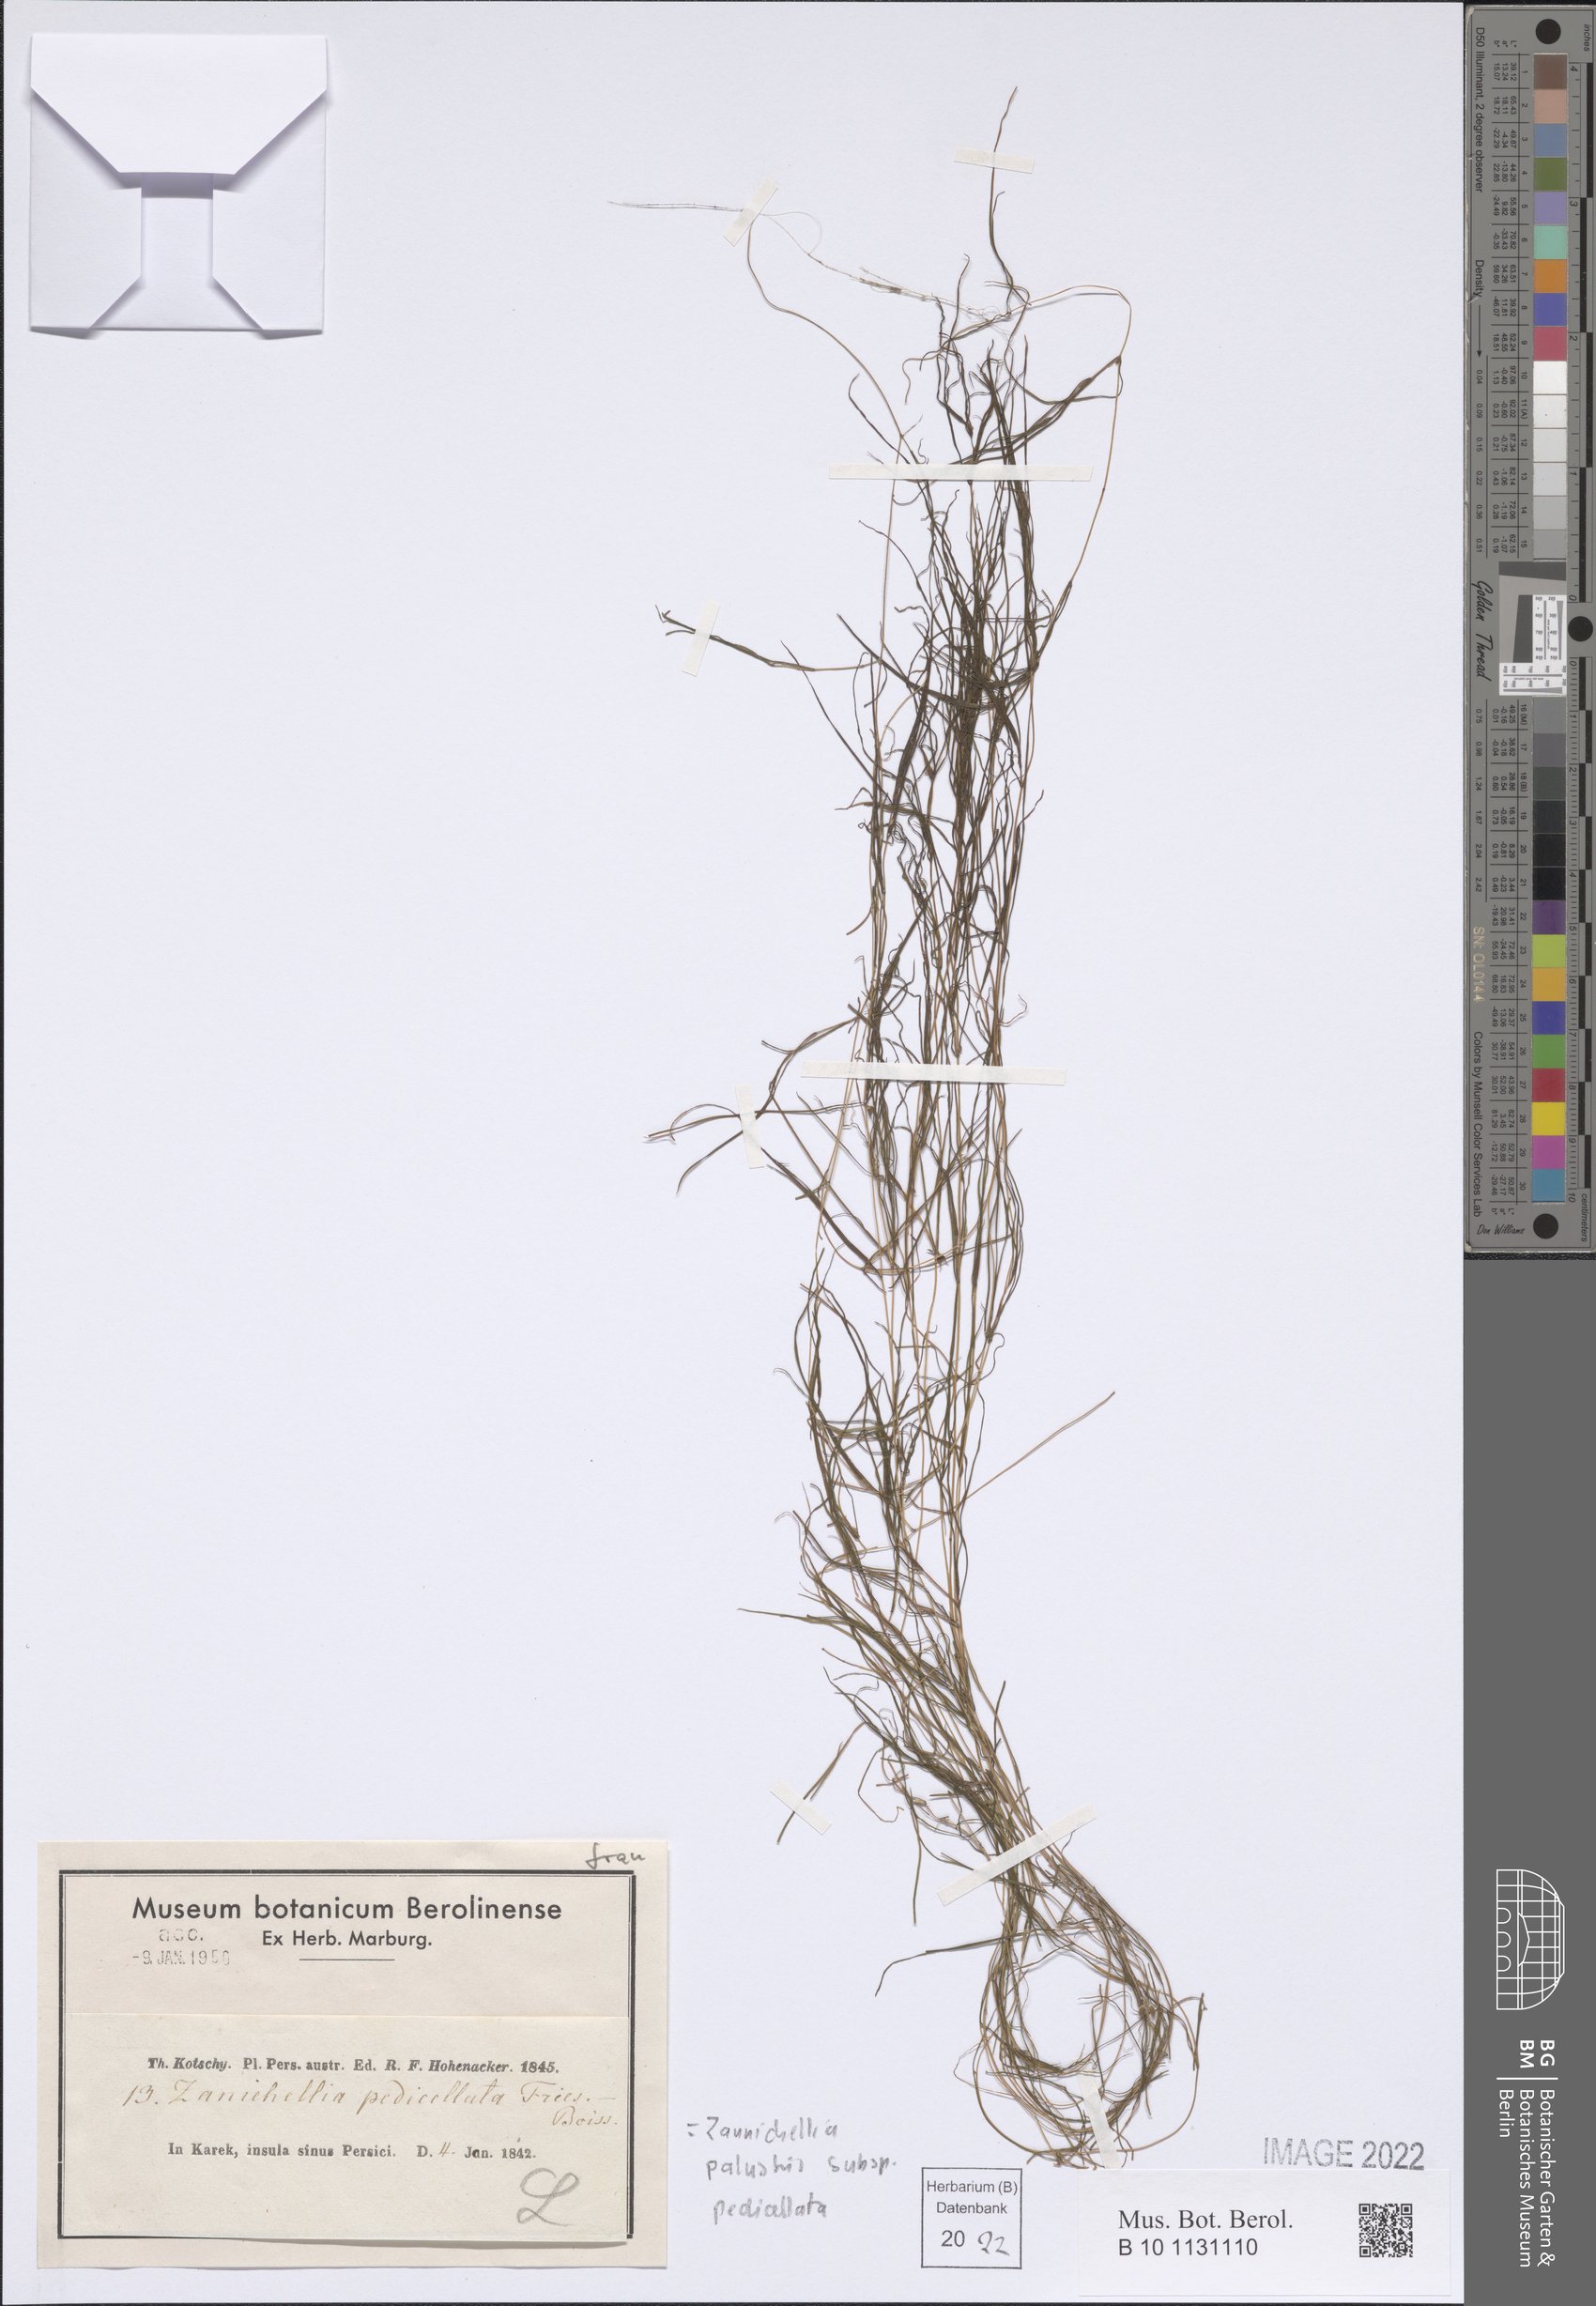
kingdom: Plantae
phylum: Tracheophyta
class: Liliopsida
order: Alismatales
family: Potamogetonaceae
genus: Zannichellia
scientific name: Zannichellia palustris
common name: Horned pondweed
